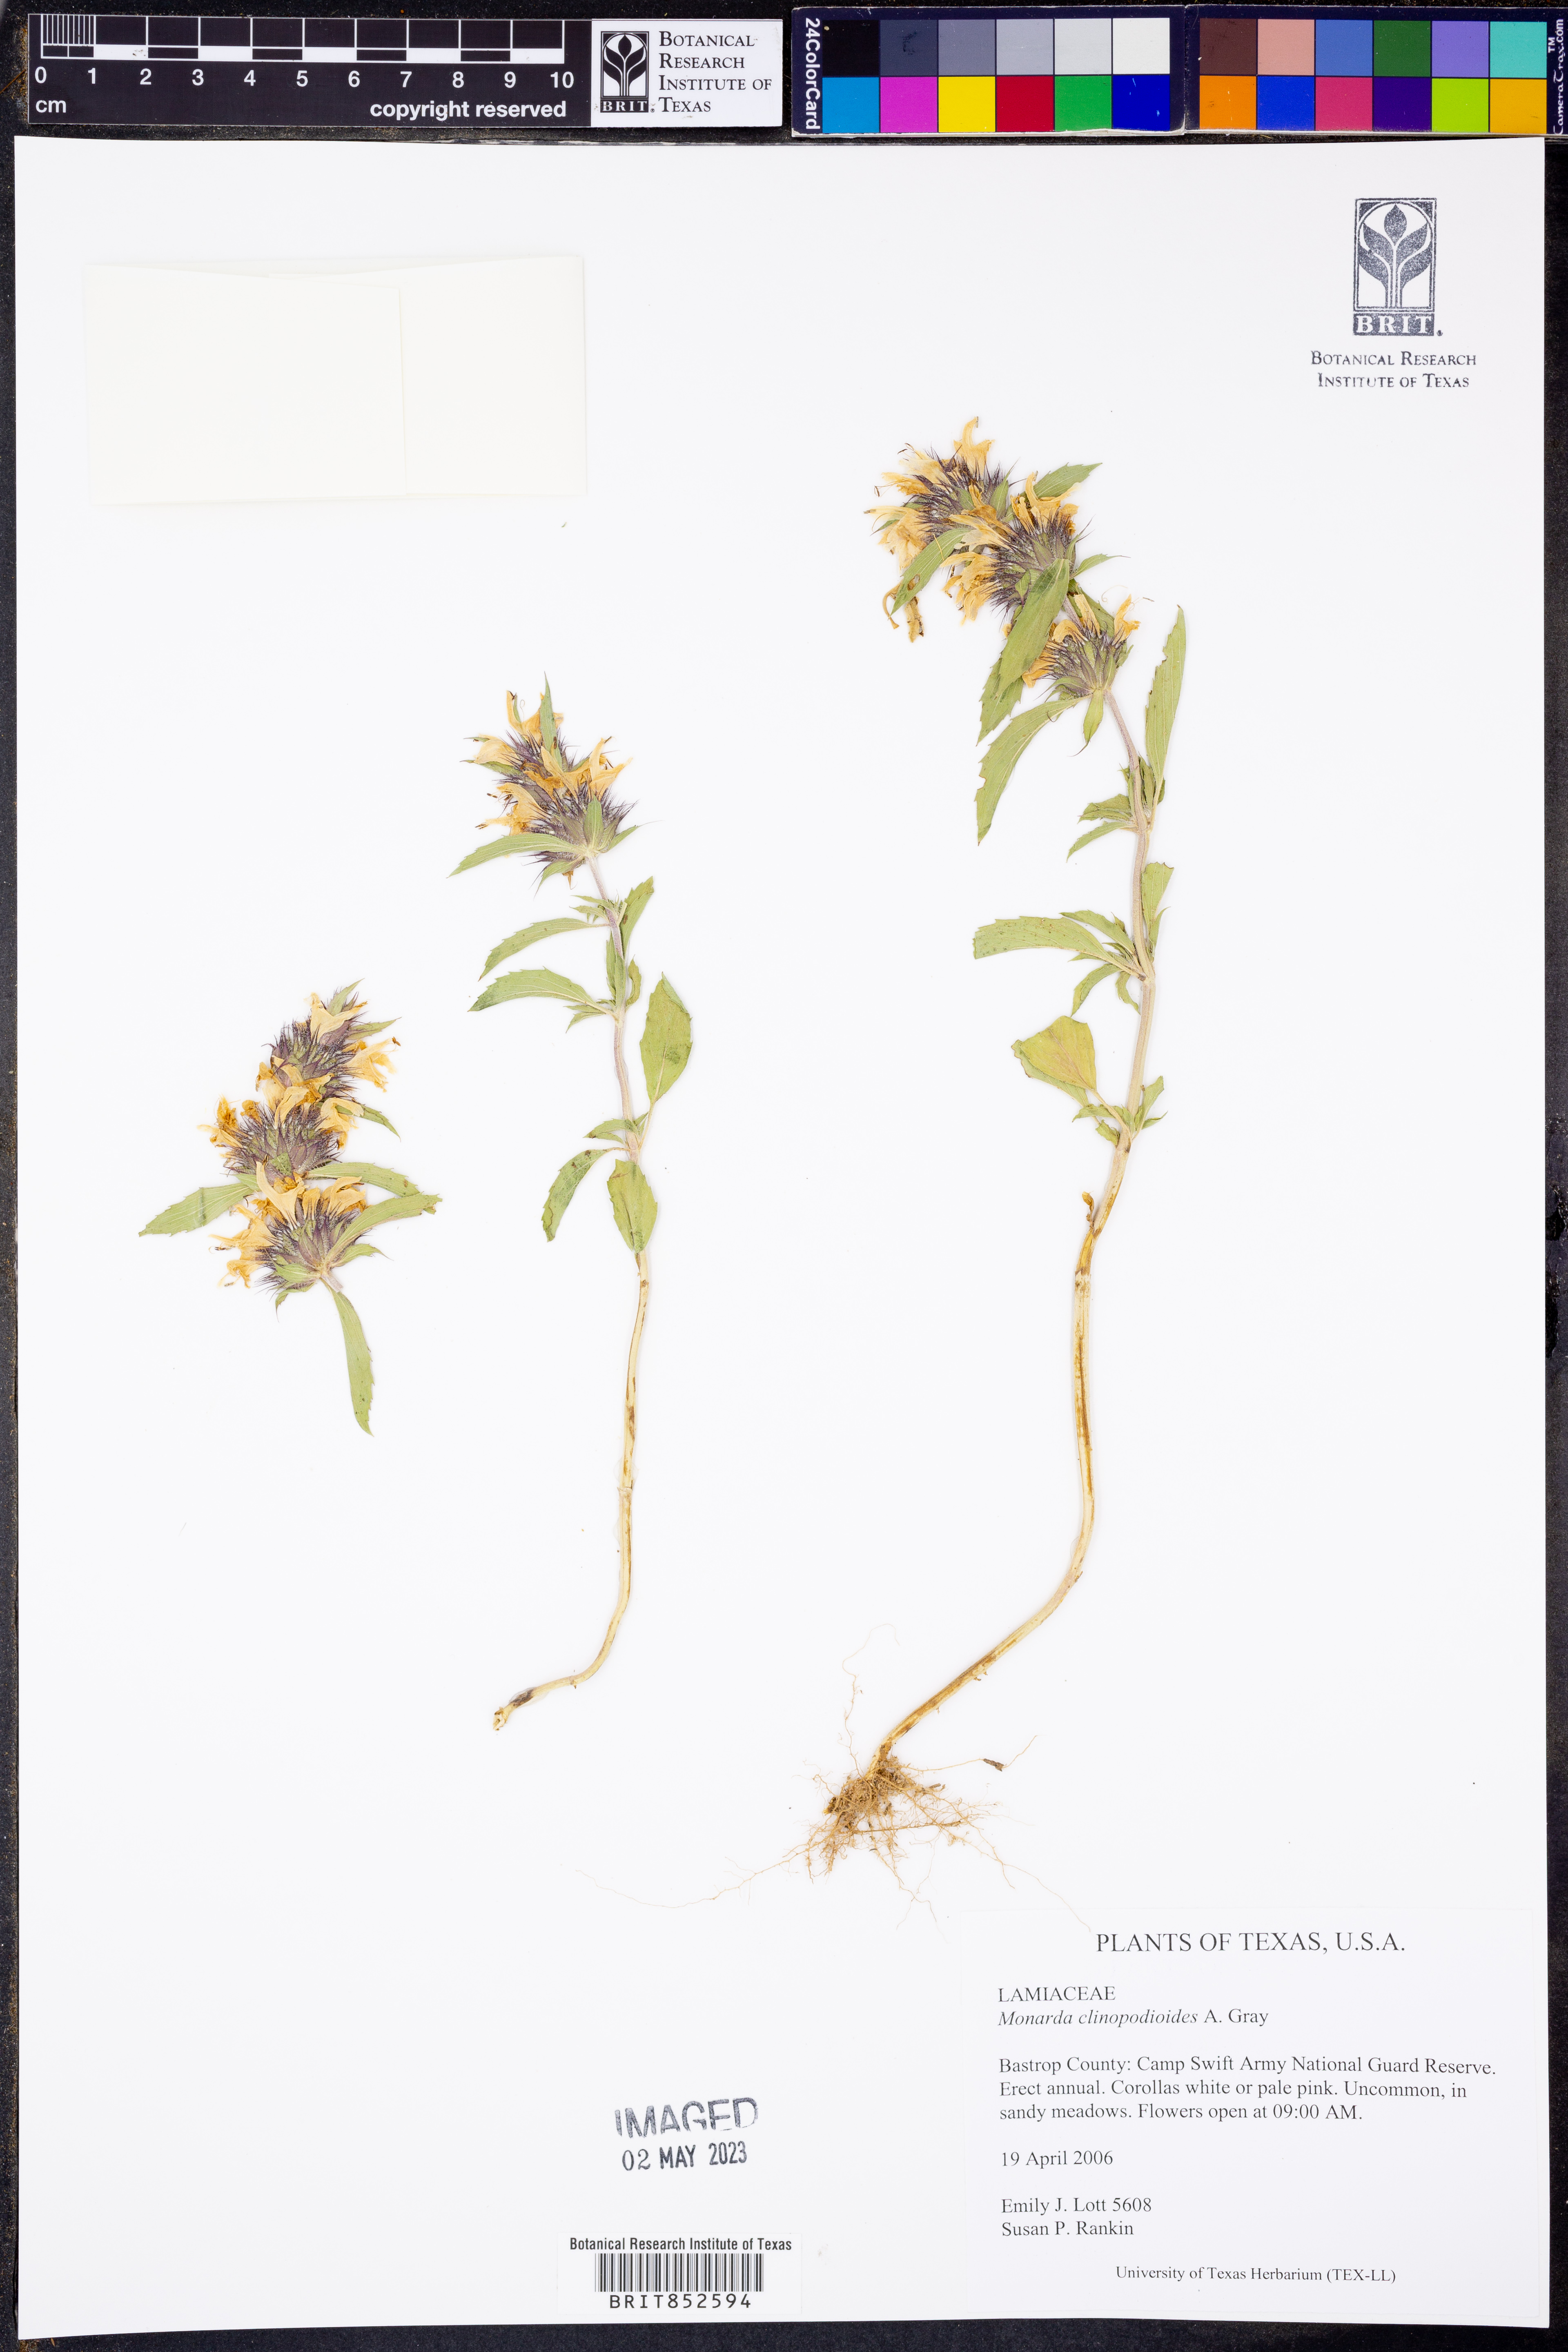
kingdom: Plantae
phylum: Tracheophyta
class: Magnoliopsida
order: Lamiales
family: Lamiaceae
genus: Monarda
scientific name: Monarda clinopodioides
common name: Basil beebalm
